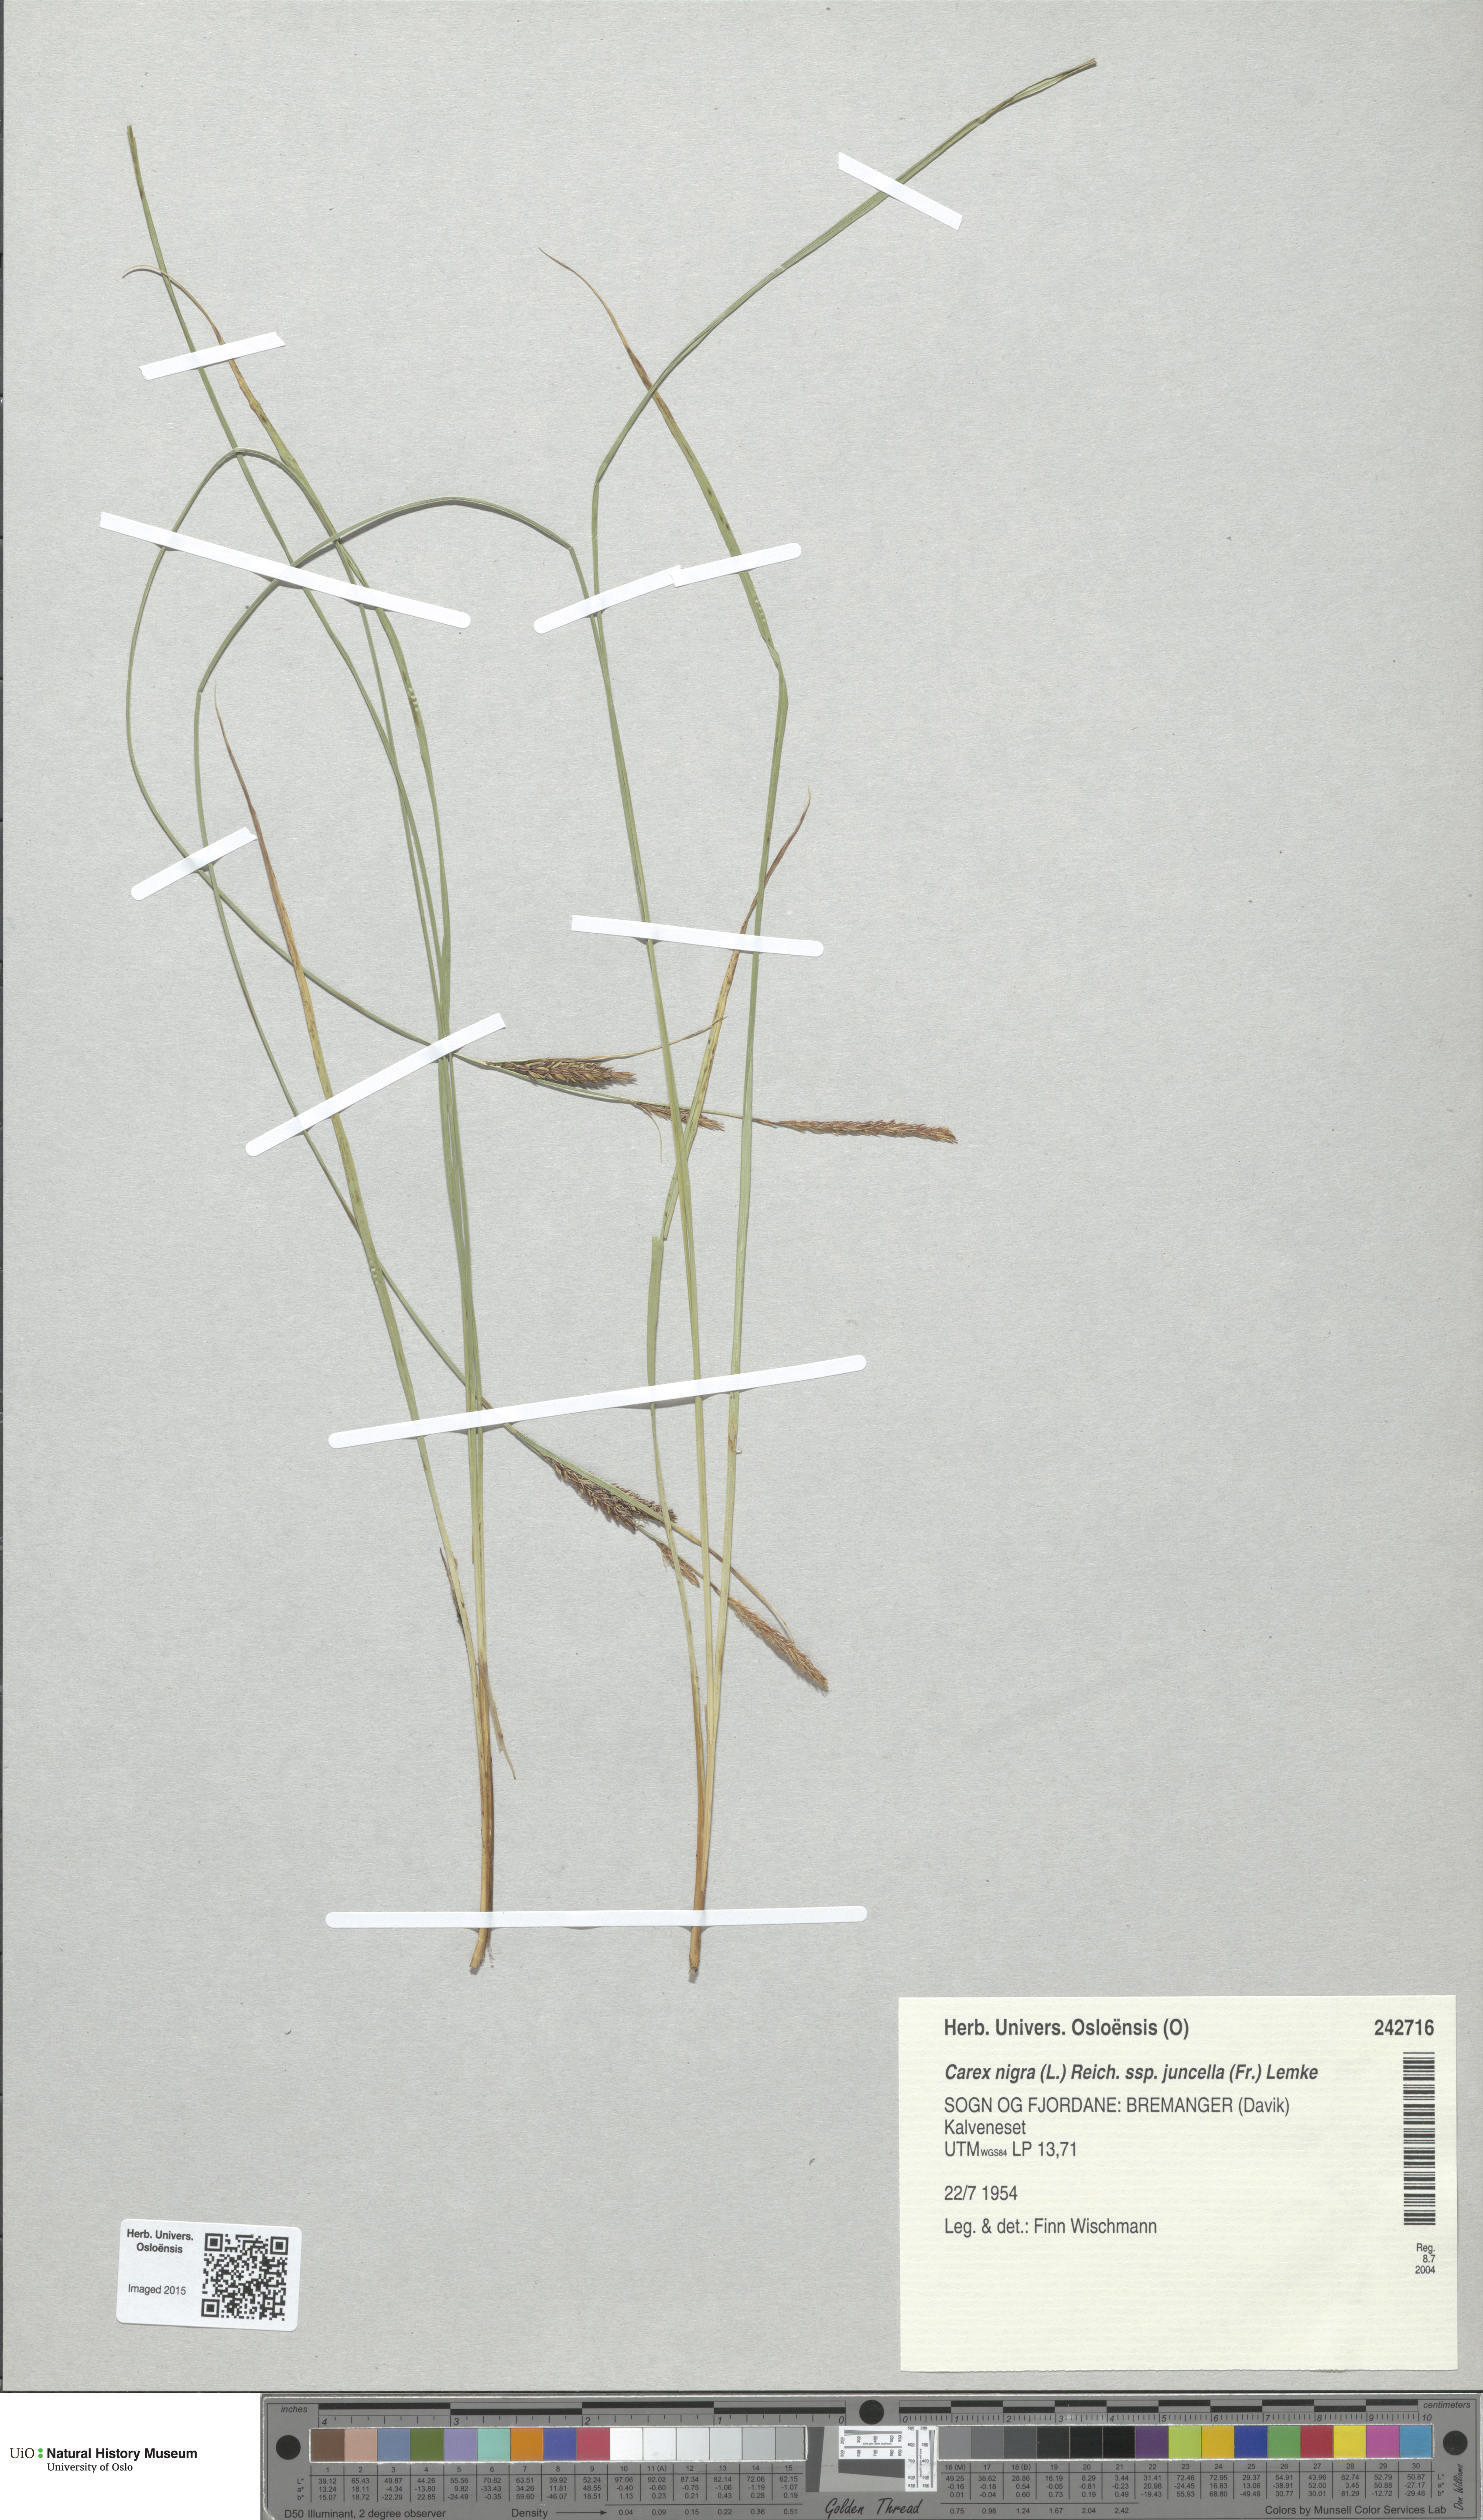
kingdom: Plantae
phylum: Tracheophyta
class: Liliopsida
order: Poales
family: Cyperaceae
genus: Carex
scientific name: Carex nigra
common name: Common sedge
